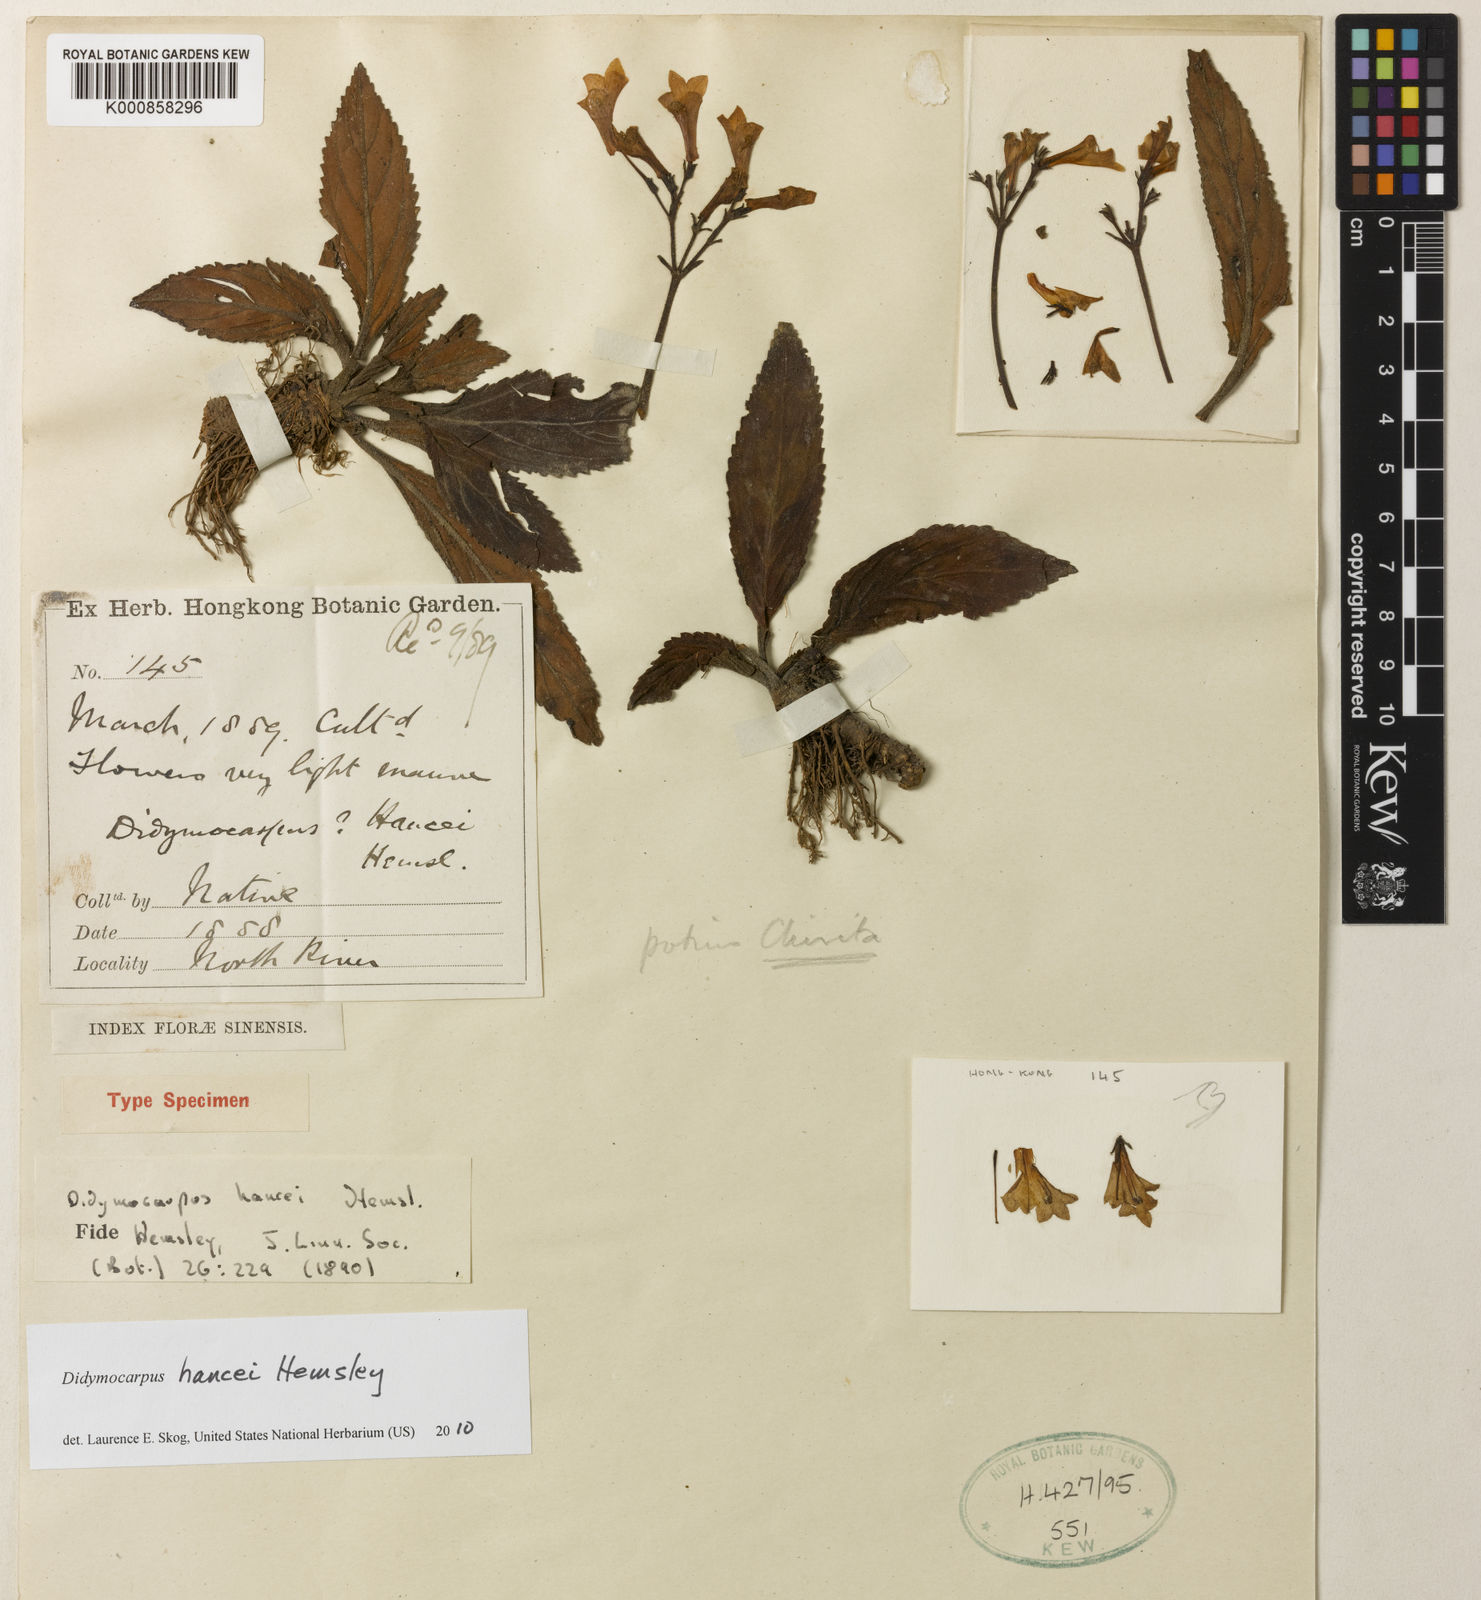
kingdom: Plantae
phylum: Tracheophyta
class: Magnoliopsida
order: Lamiales
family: Gesneriaceae
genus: Petrocodon
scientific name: Petrocodon
